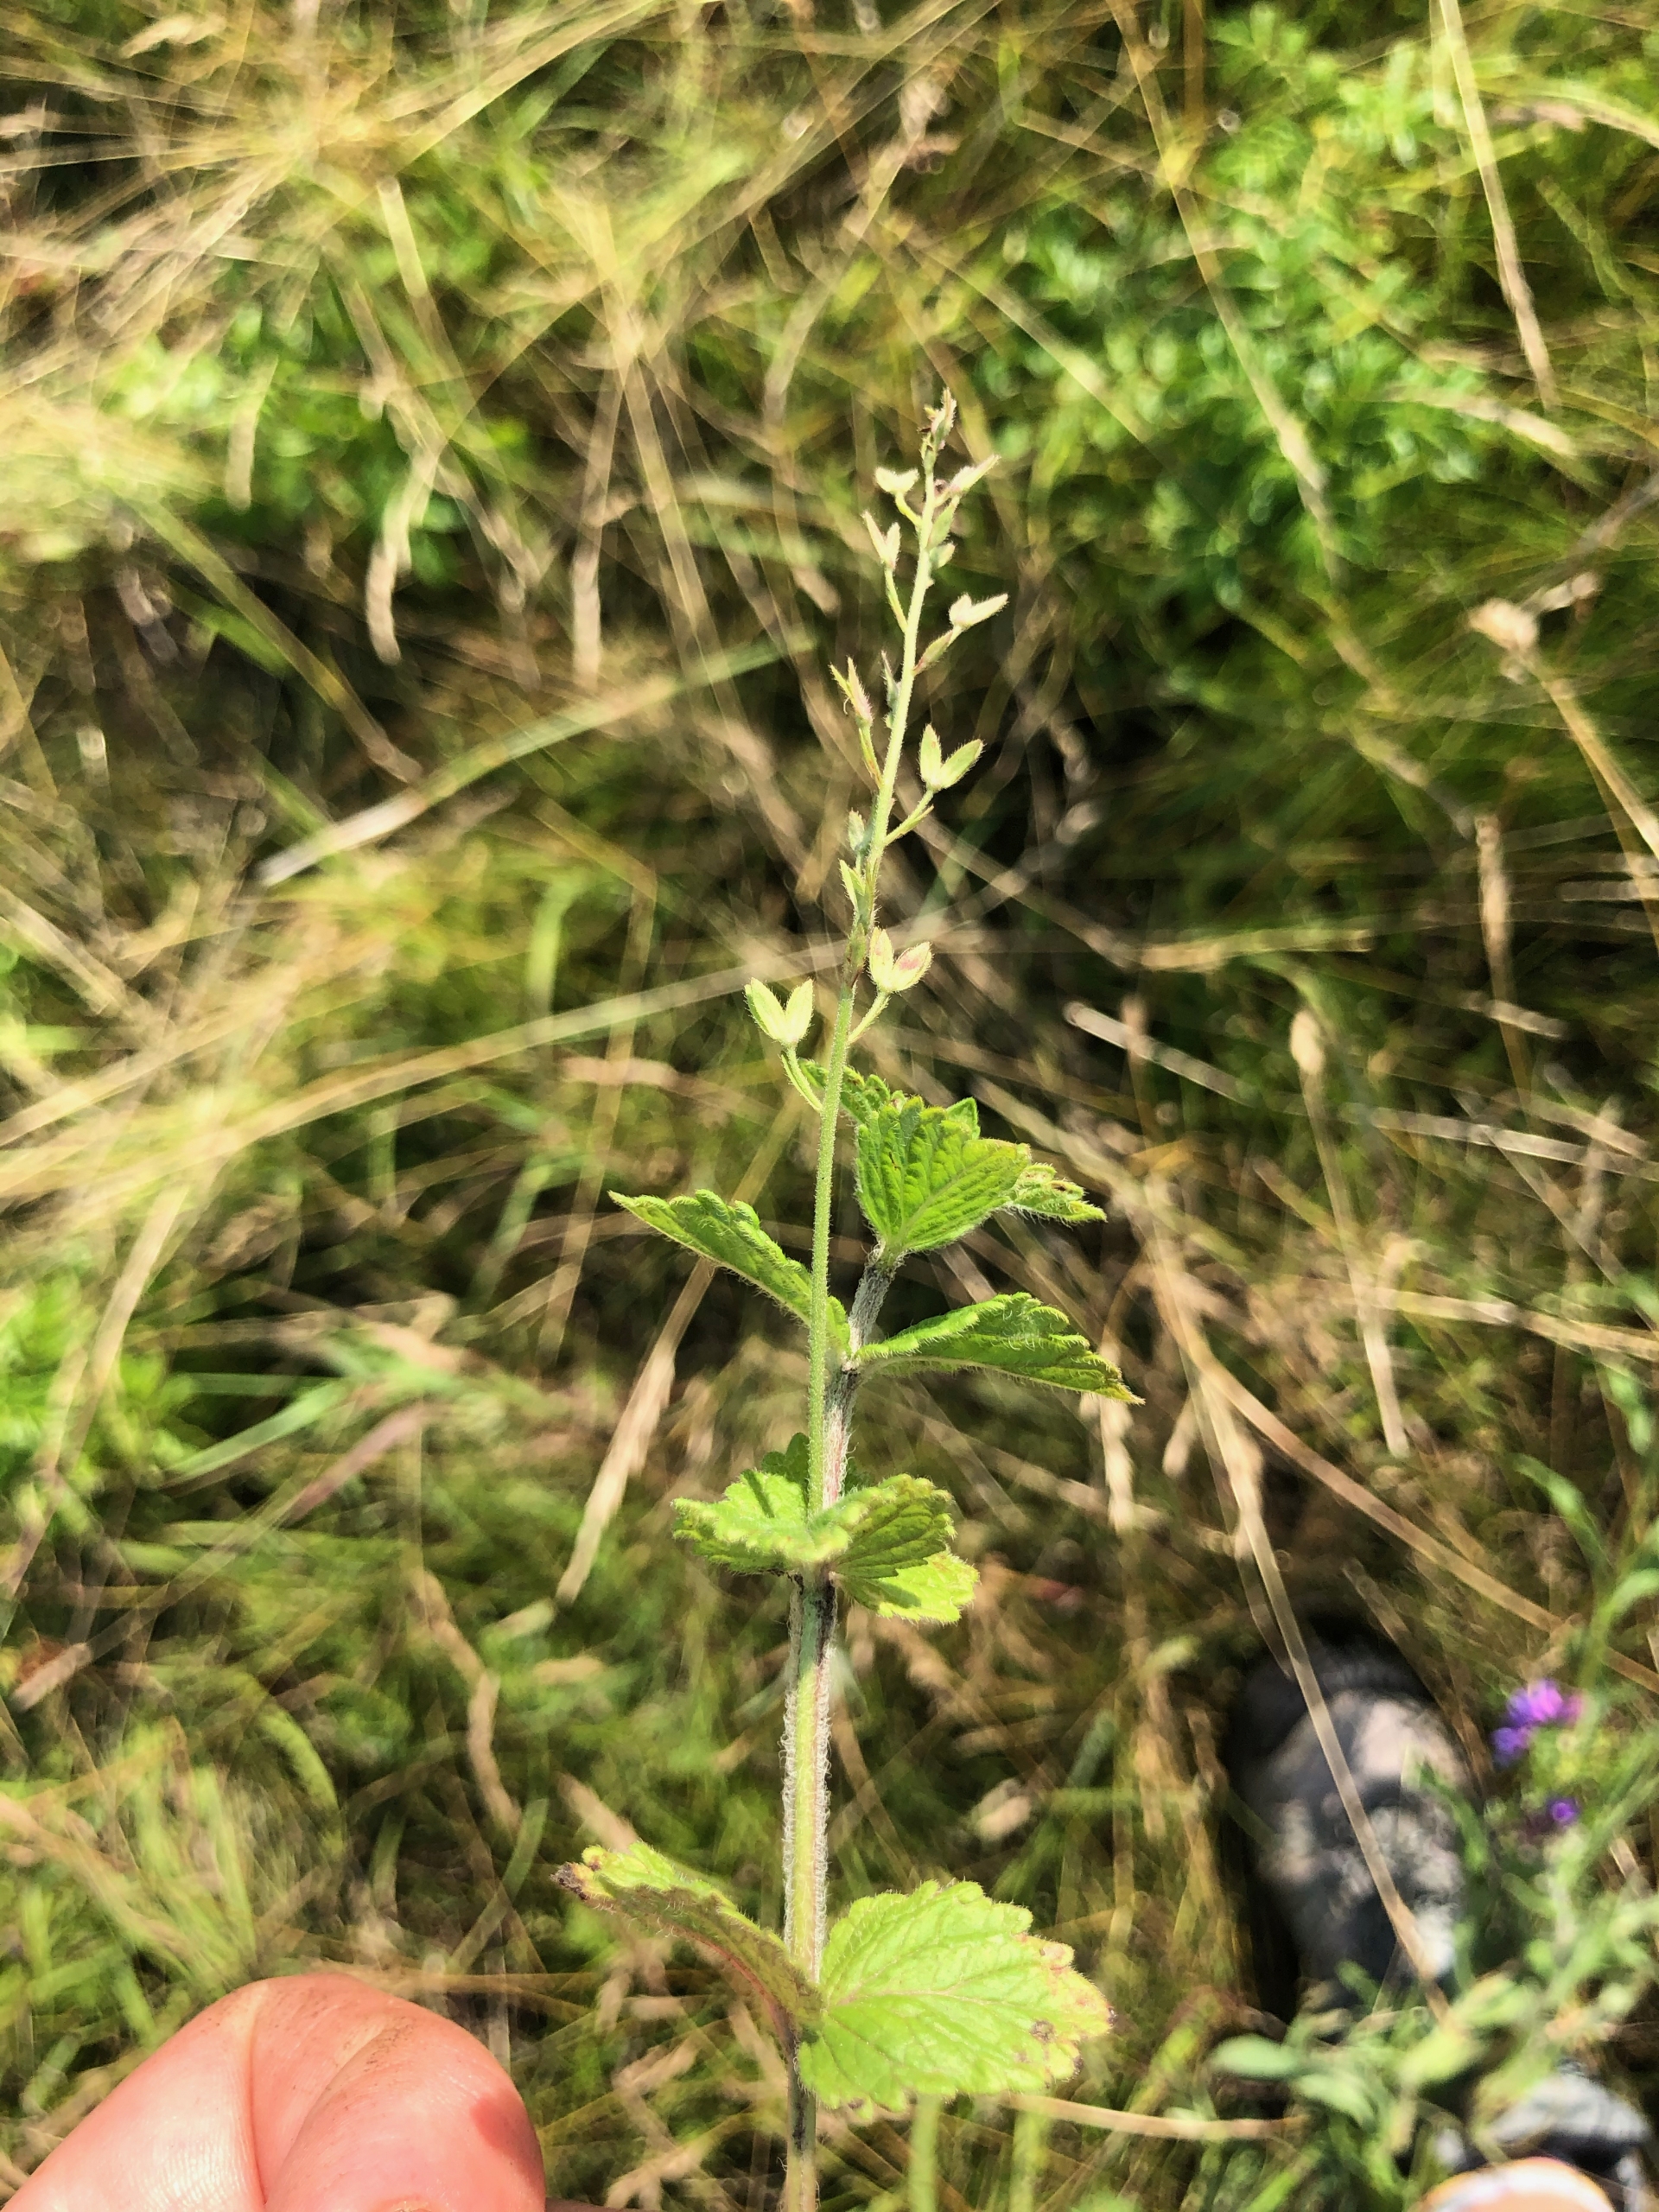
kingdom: Plantae
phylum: Tracheophyta
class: Magnoliopsida
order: Lamiales
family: Plantaginaceae
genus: Veronica
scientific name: Veronica chamaedrys
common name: Tveskægget ærenpris
